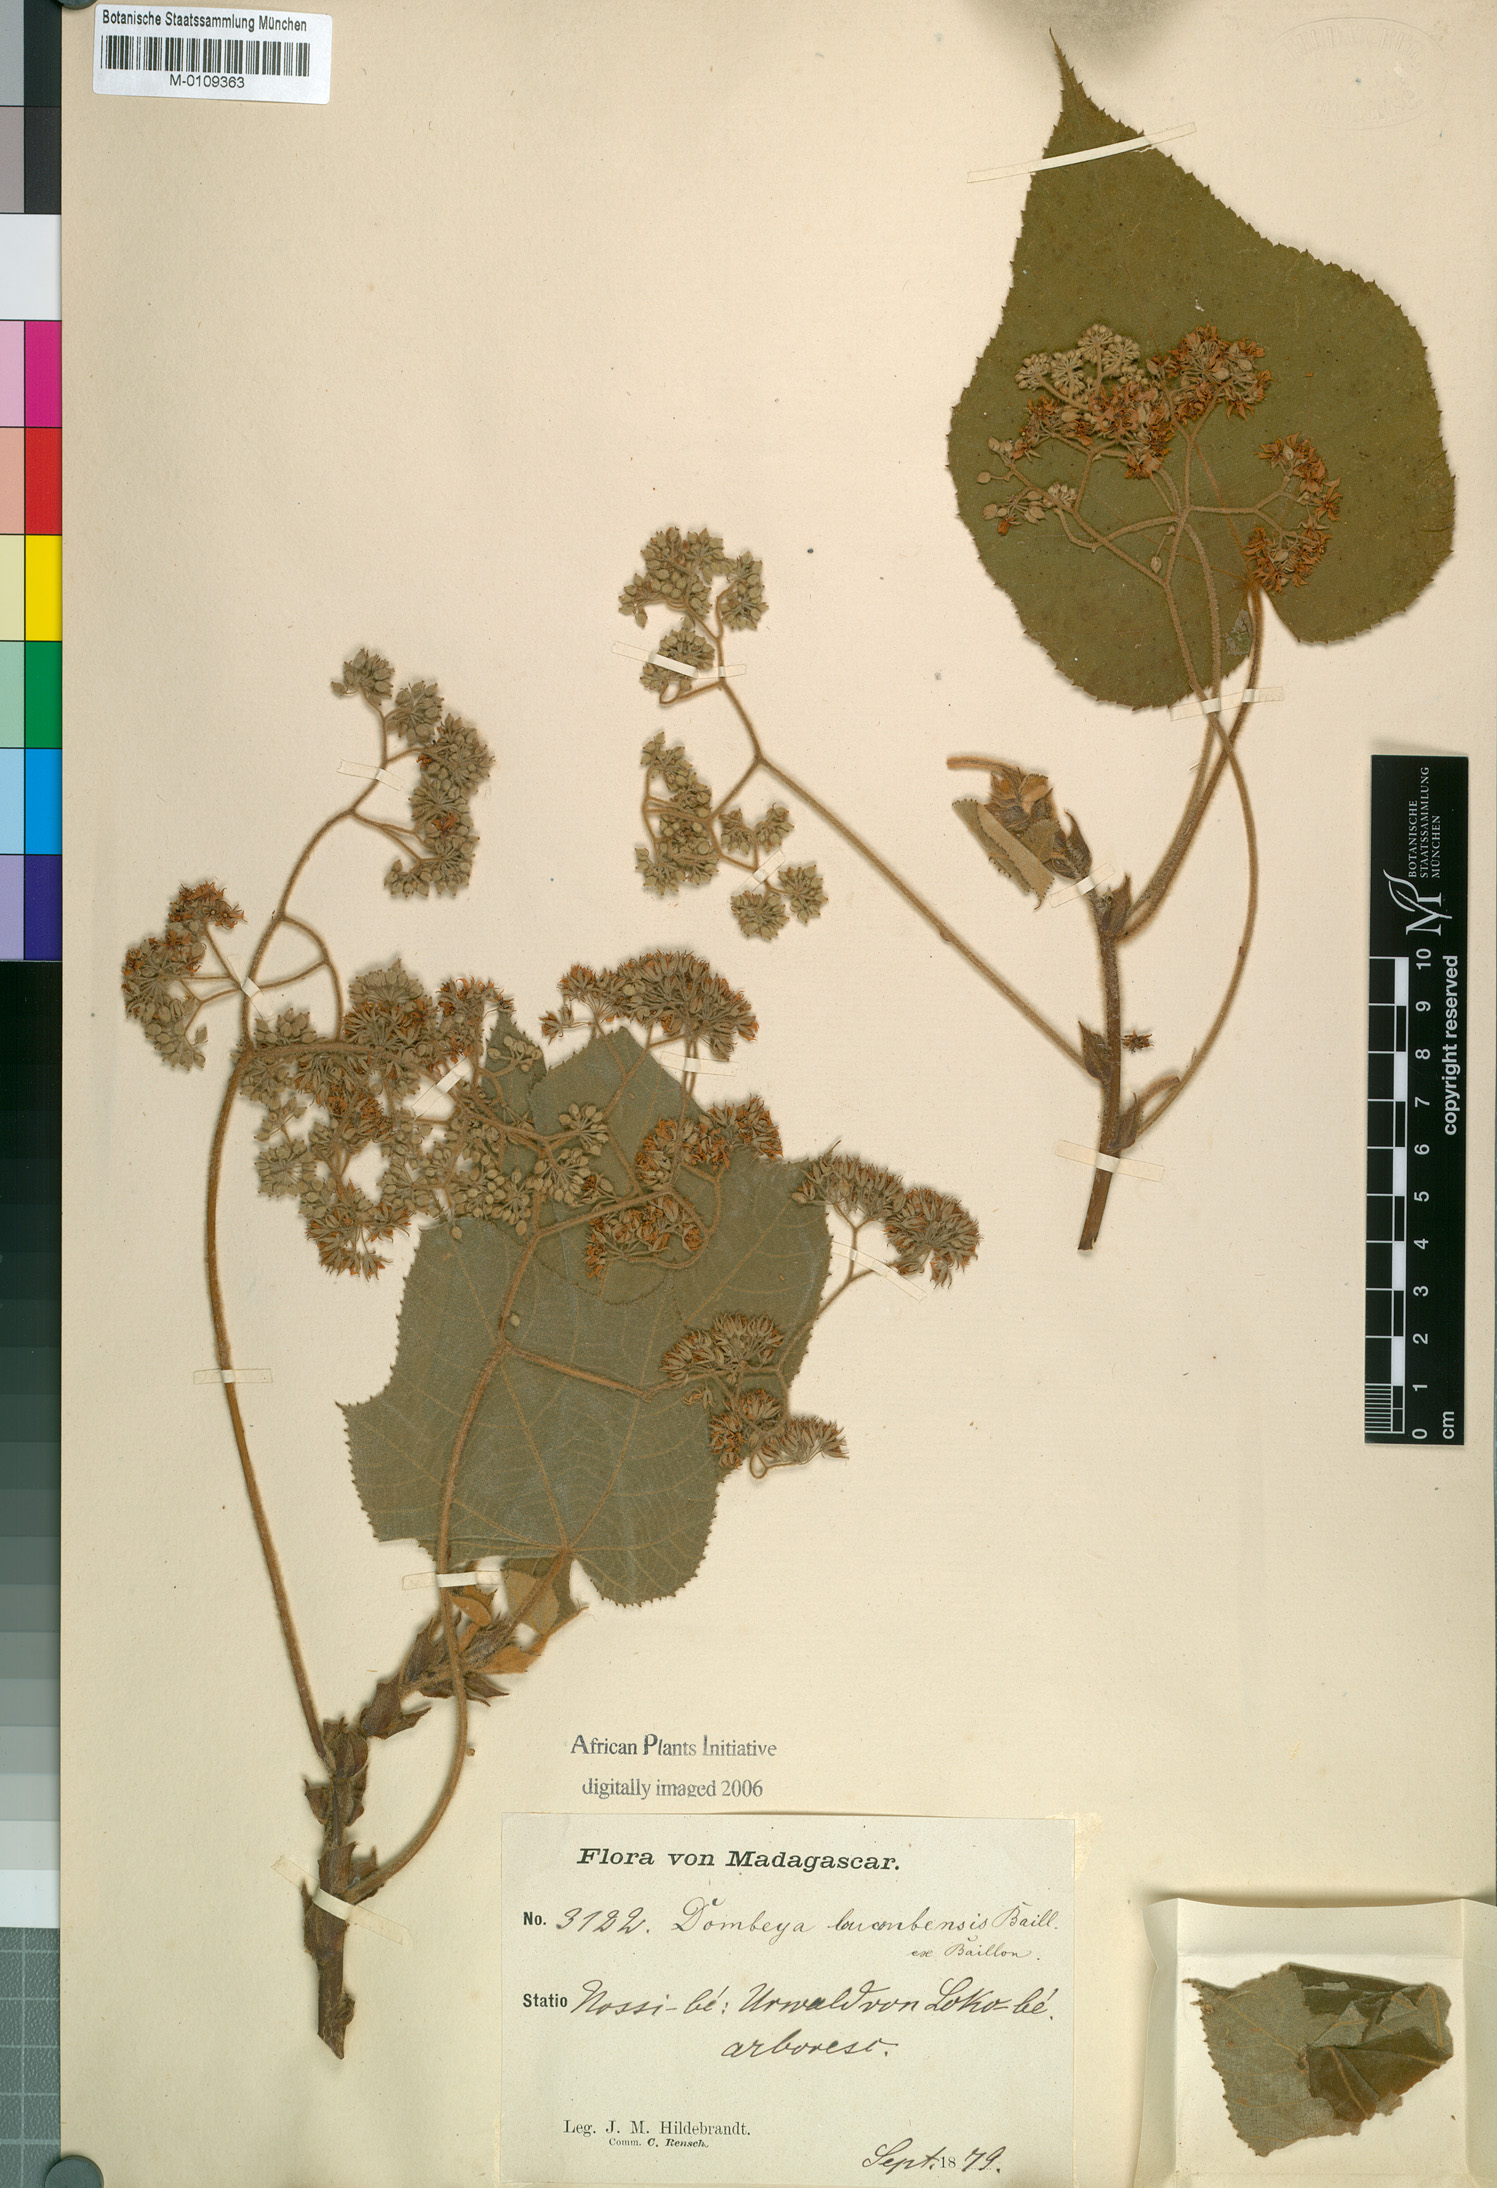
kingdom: Plantae
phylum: Tracheophyta
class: Magnoliopsida
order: Malvales
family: Malvaceae
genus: Dombeya
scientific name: Dombeya mollis
